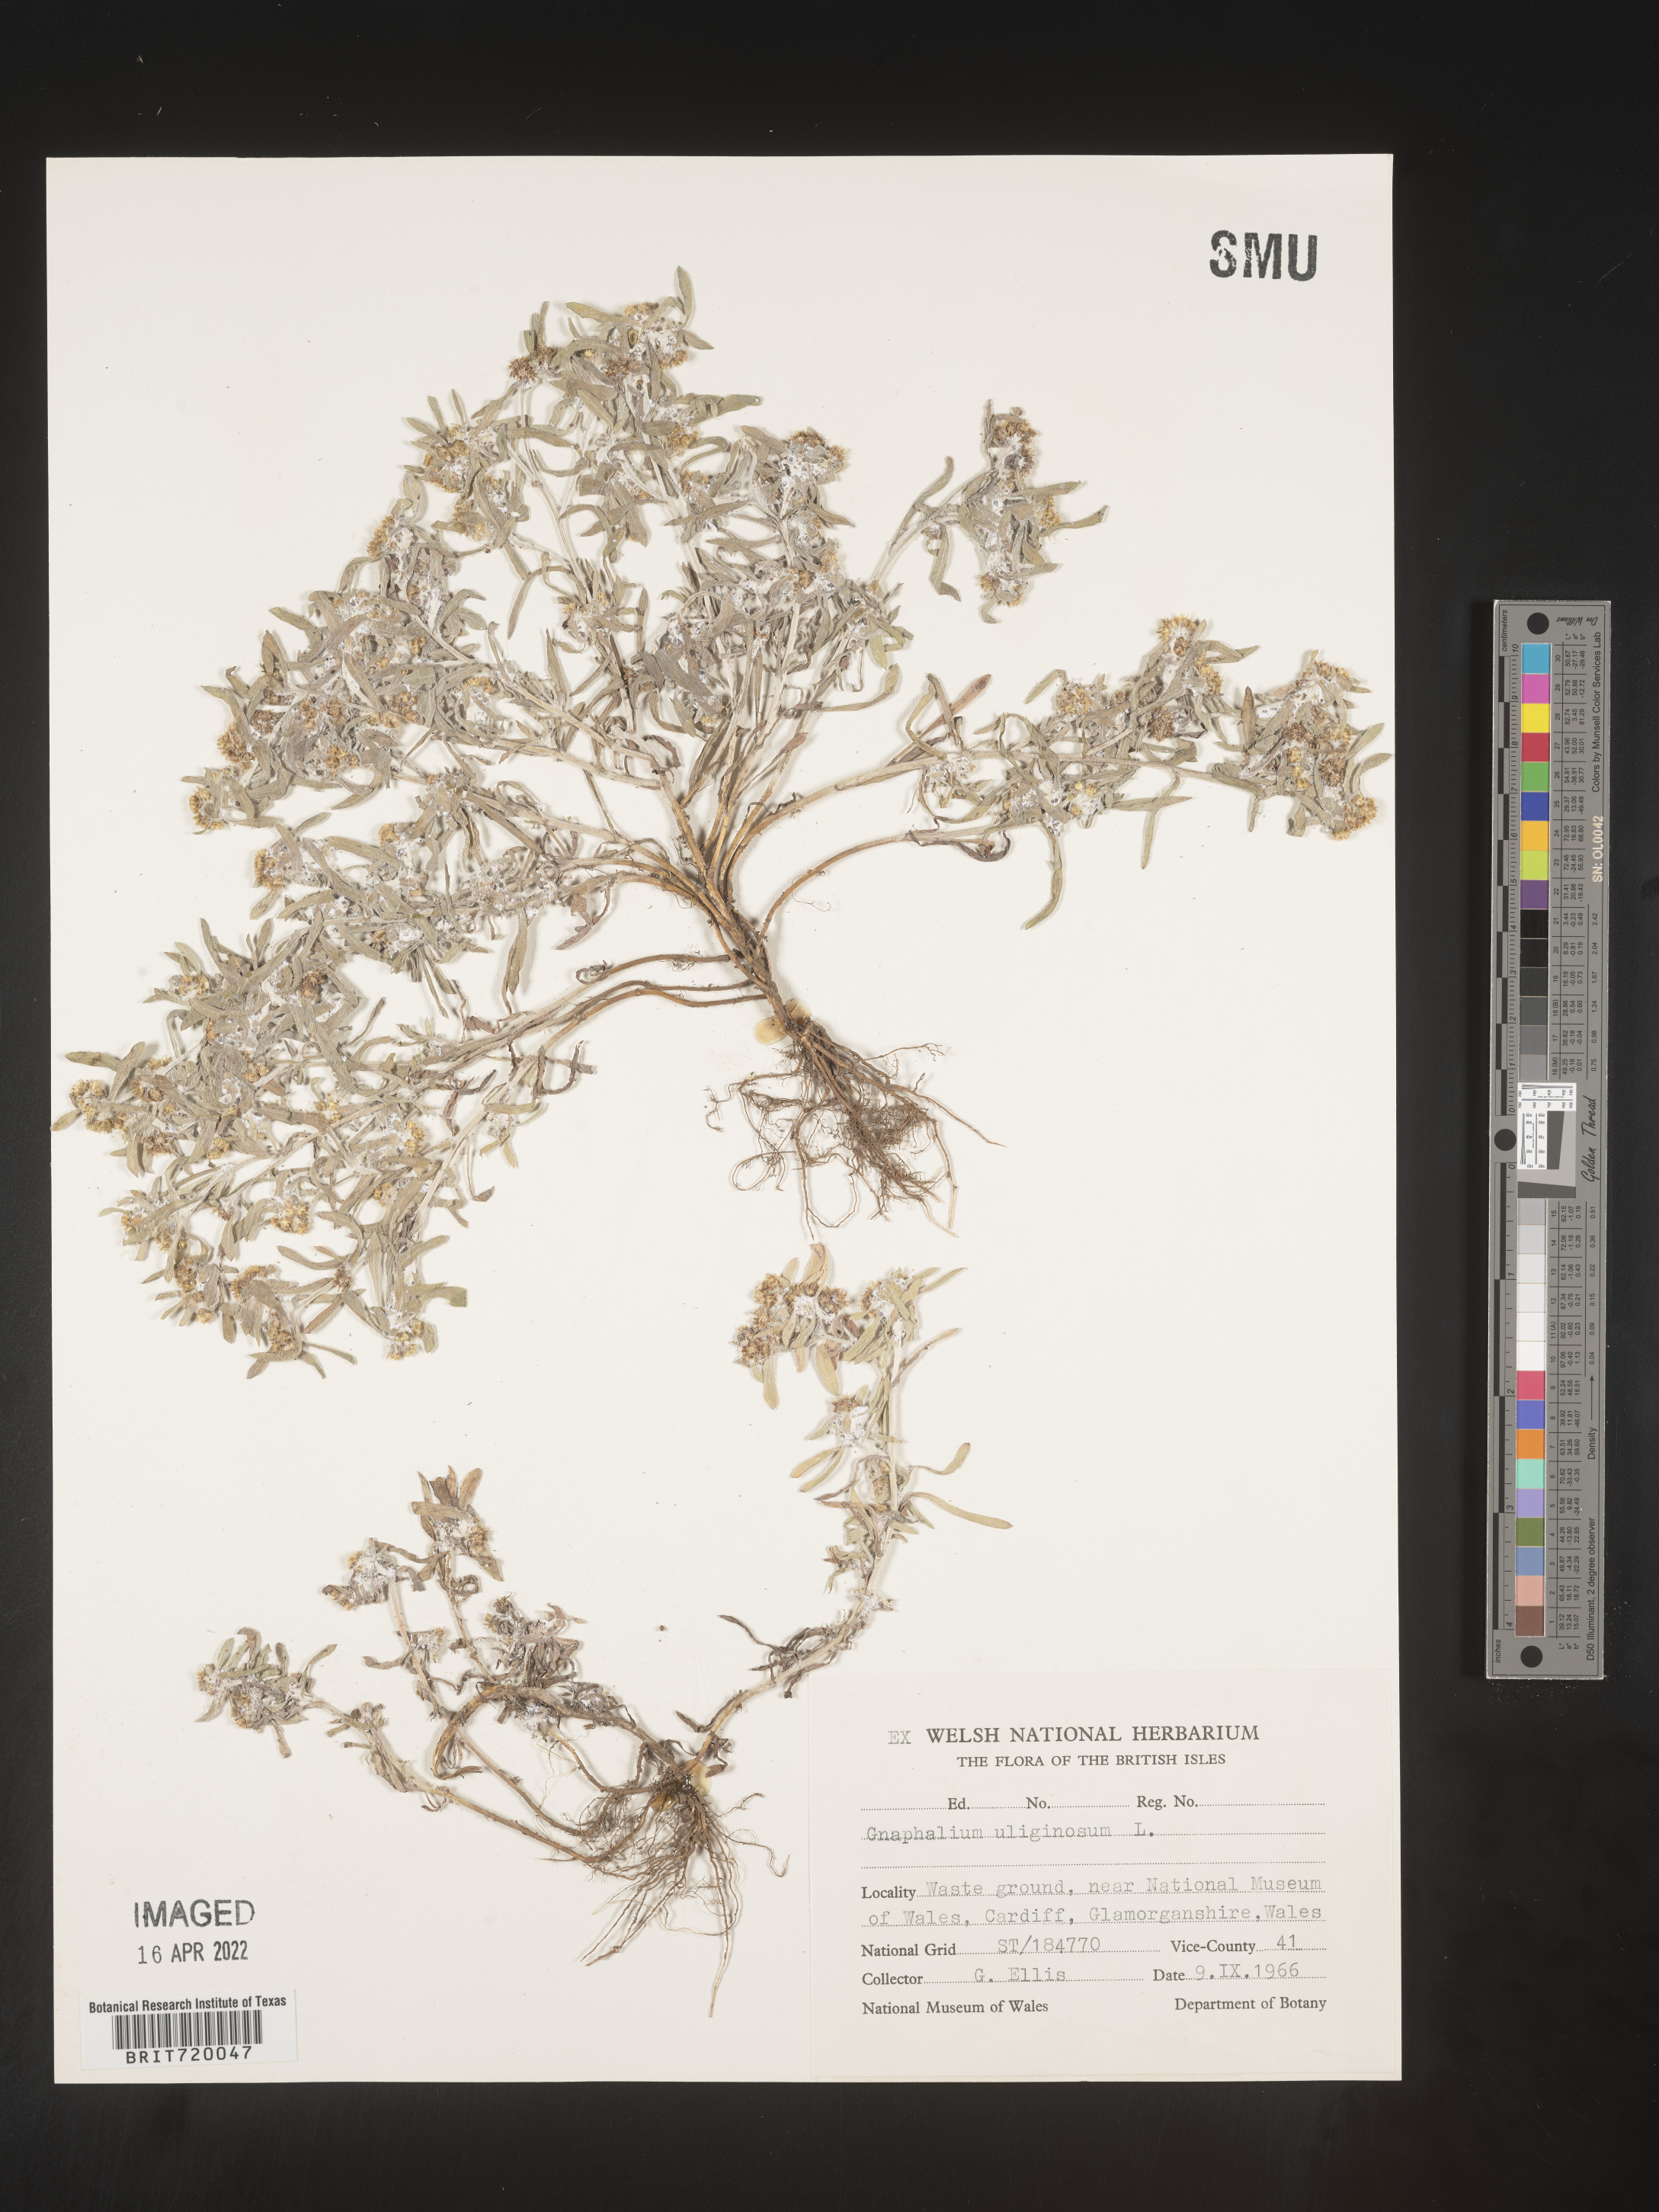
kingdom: Plantae
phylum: Tracheophyta
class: Magnoliopsida
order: Asterales
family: Asteraceae
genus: Gnaphalium
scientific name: Gnaphalium
